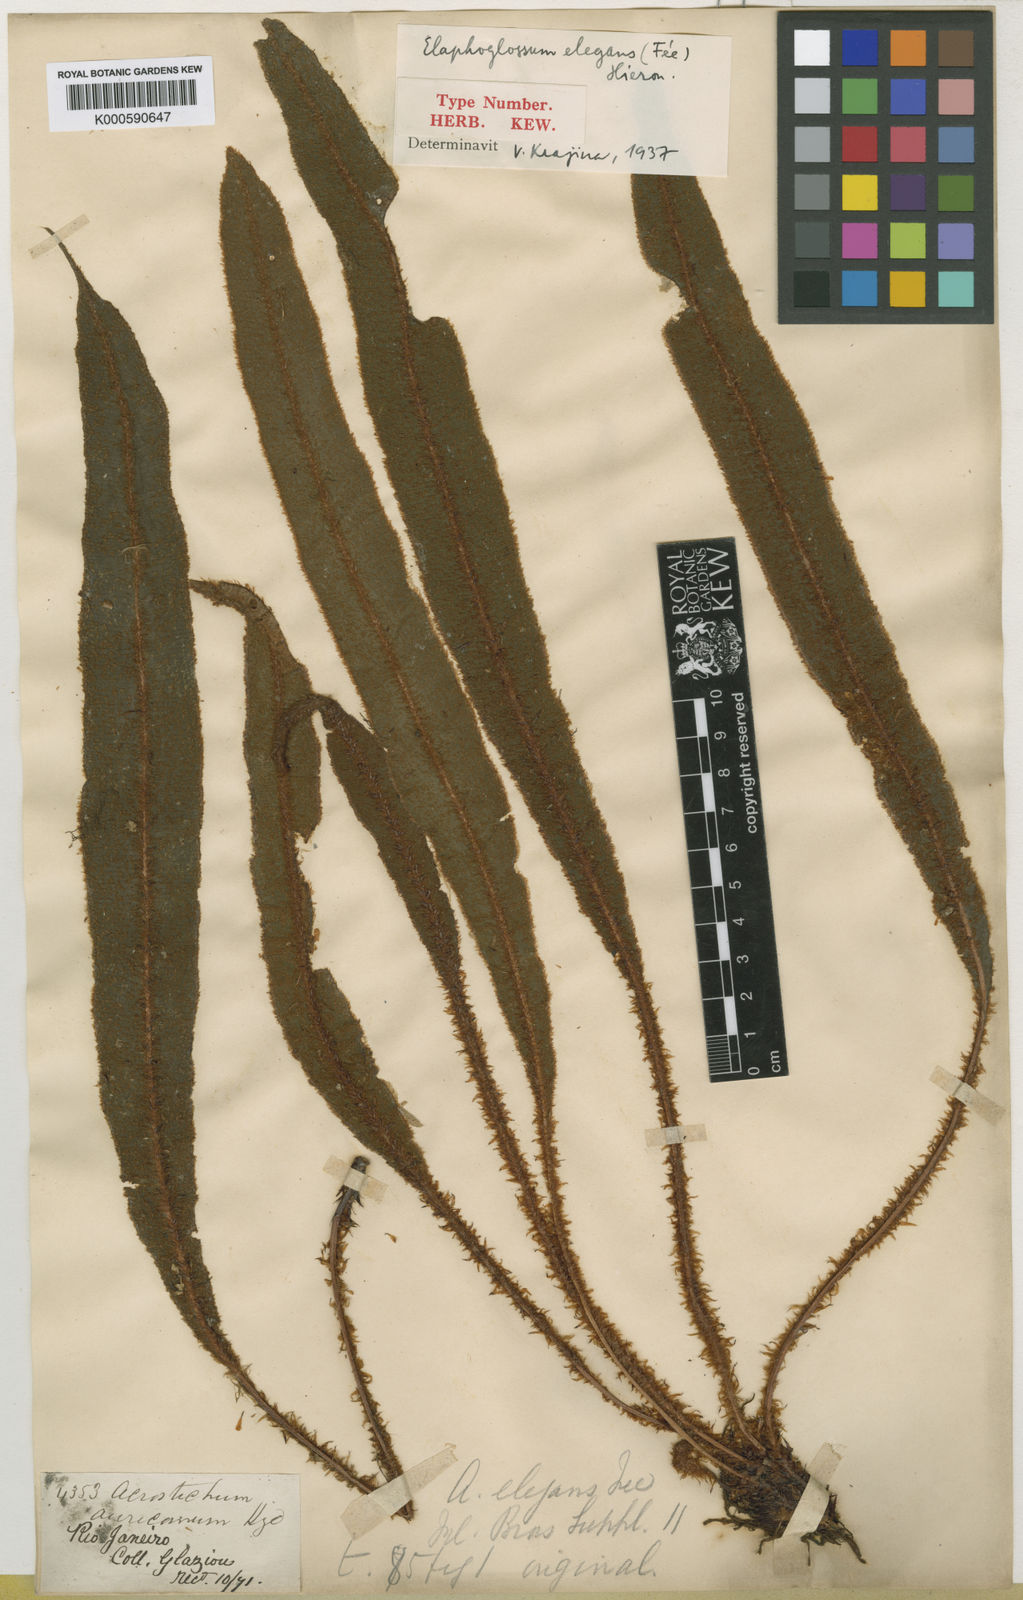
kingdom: Plantae
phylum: Tracheophyta
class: Polypodiopsida
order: Polypodiales
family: Dryopteridaceae
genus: Elaphoglossum
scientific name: Elaphoglossum plumosum
